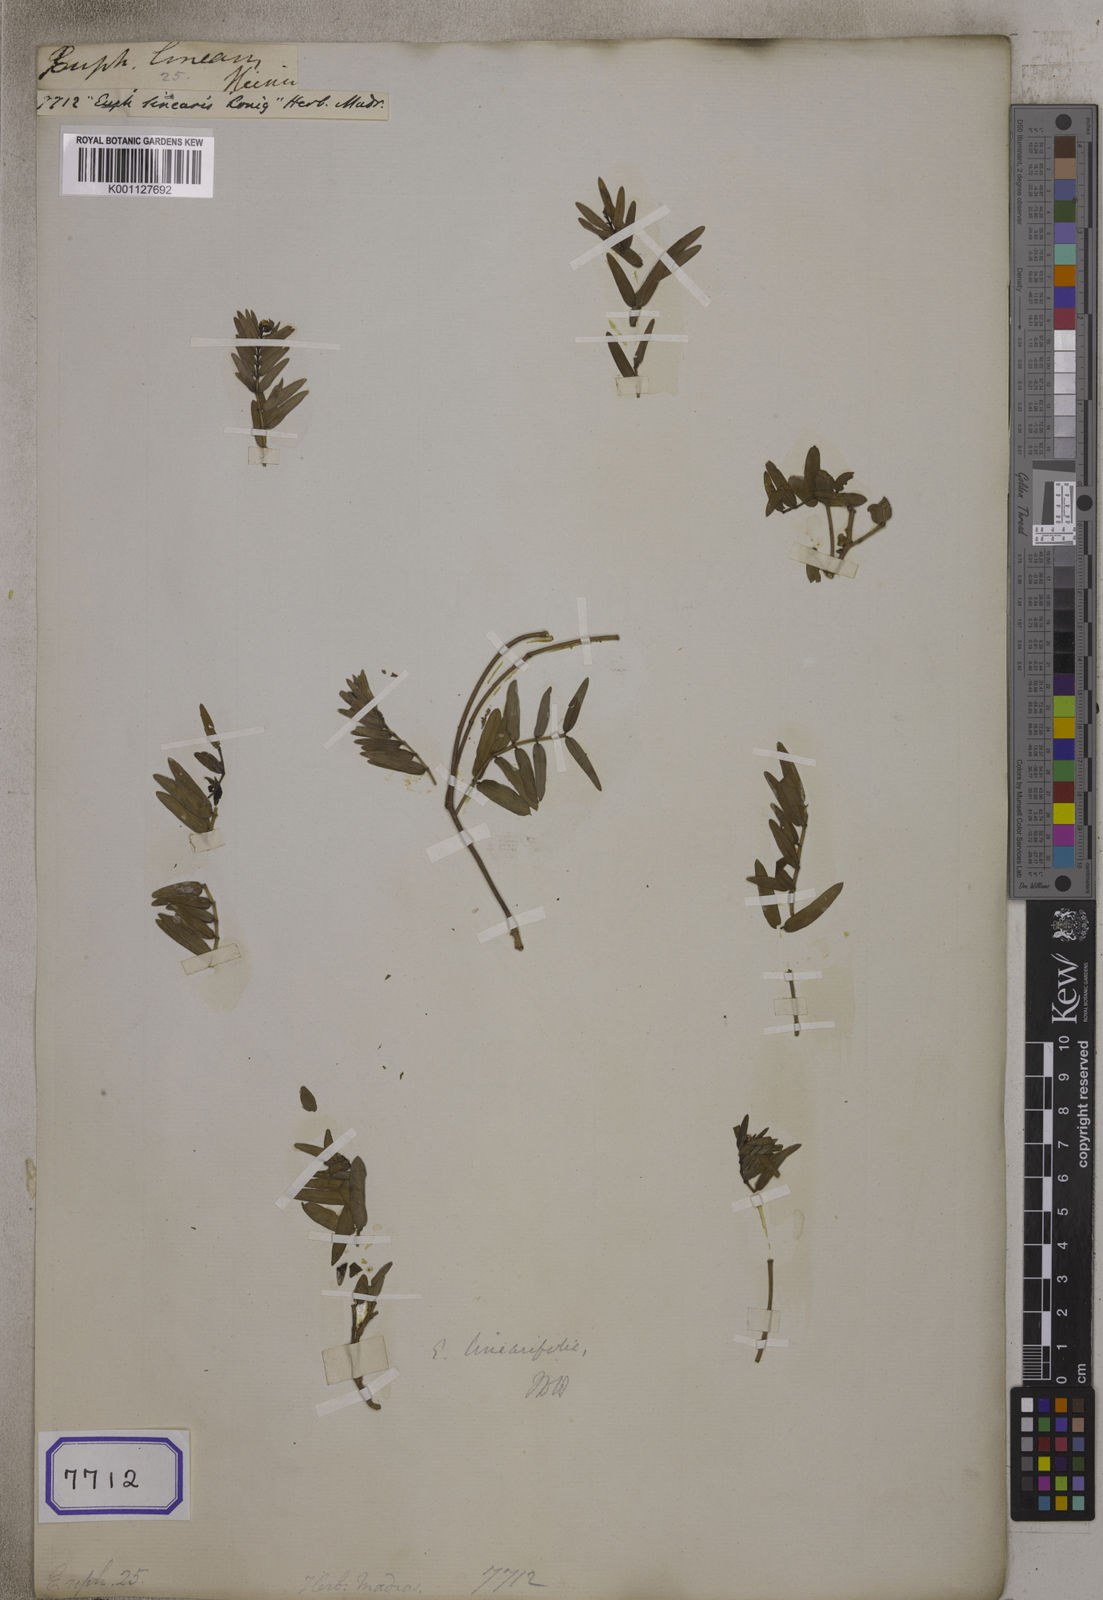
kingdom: Plantae
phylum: Tracheophyta
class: Magnoliopsida
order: Malpighiales
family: Euphorbiaceae
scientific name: Euphorbiaceae
